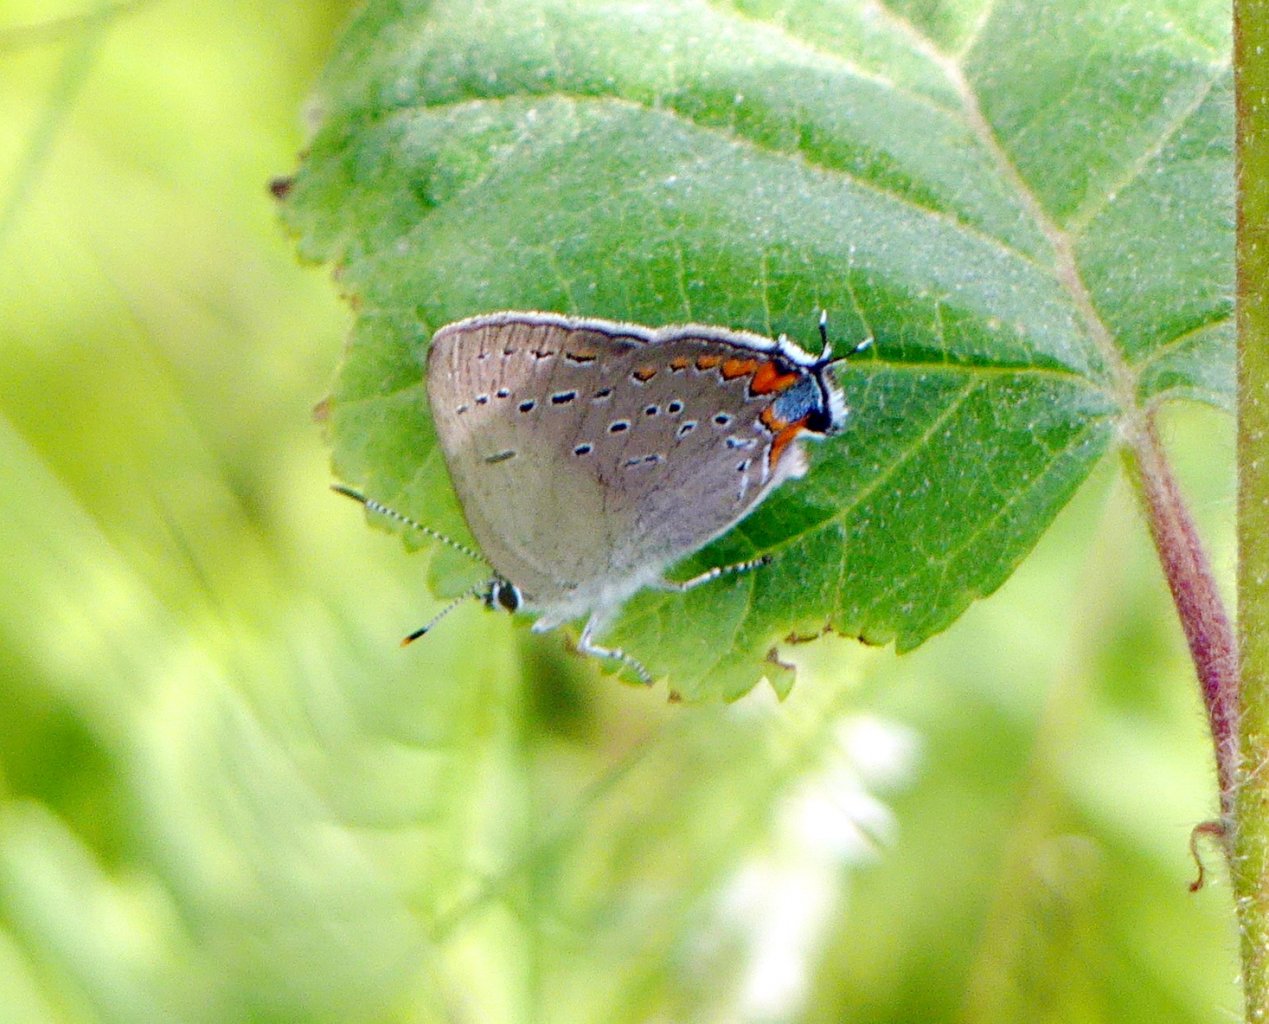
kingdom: Animalia
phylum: Arthropoda
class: Insecta
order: Lepidoptera
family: Lycaenidae
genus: Strymon
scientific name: Strymon acadica
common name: Acadian Hairstreak
